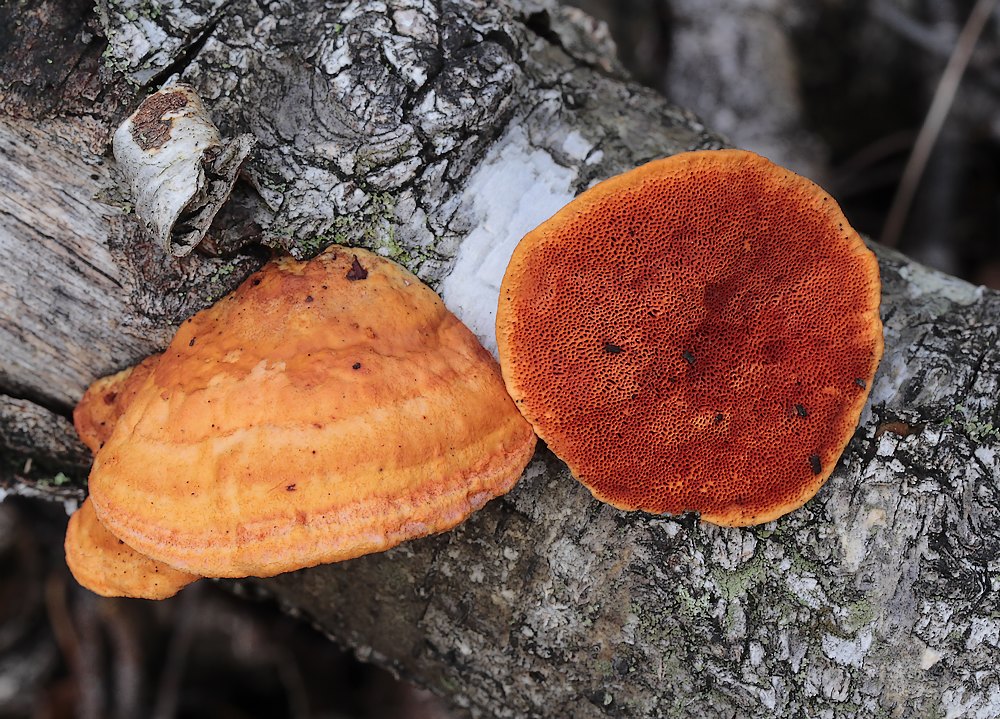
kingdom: Fungi
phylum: Basidiomycota
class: Agaricomycetes
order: Polyporales
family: Polyporaceae
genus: Trametes
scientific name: Trametes cinnabarina
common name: cinnoberporesvamp
